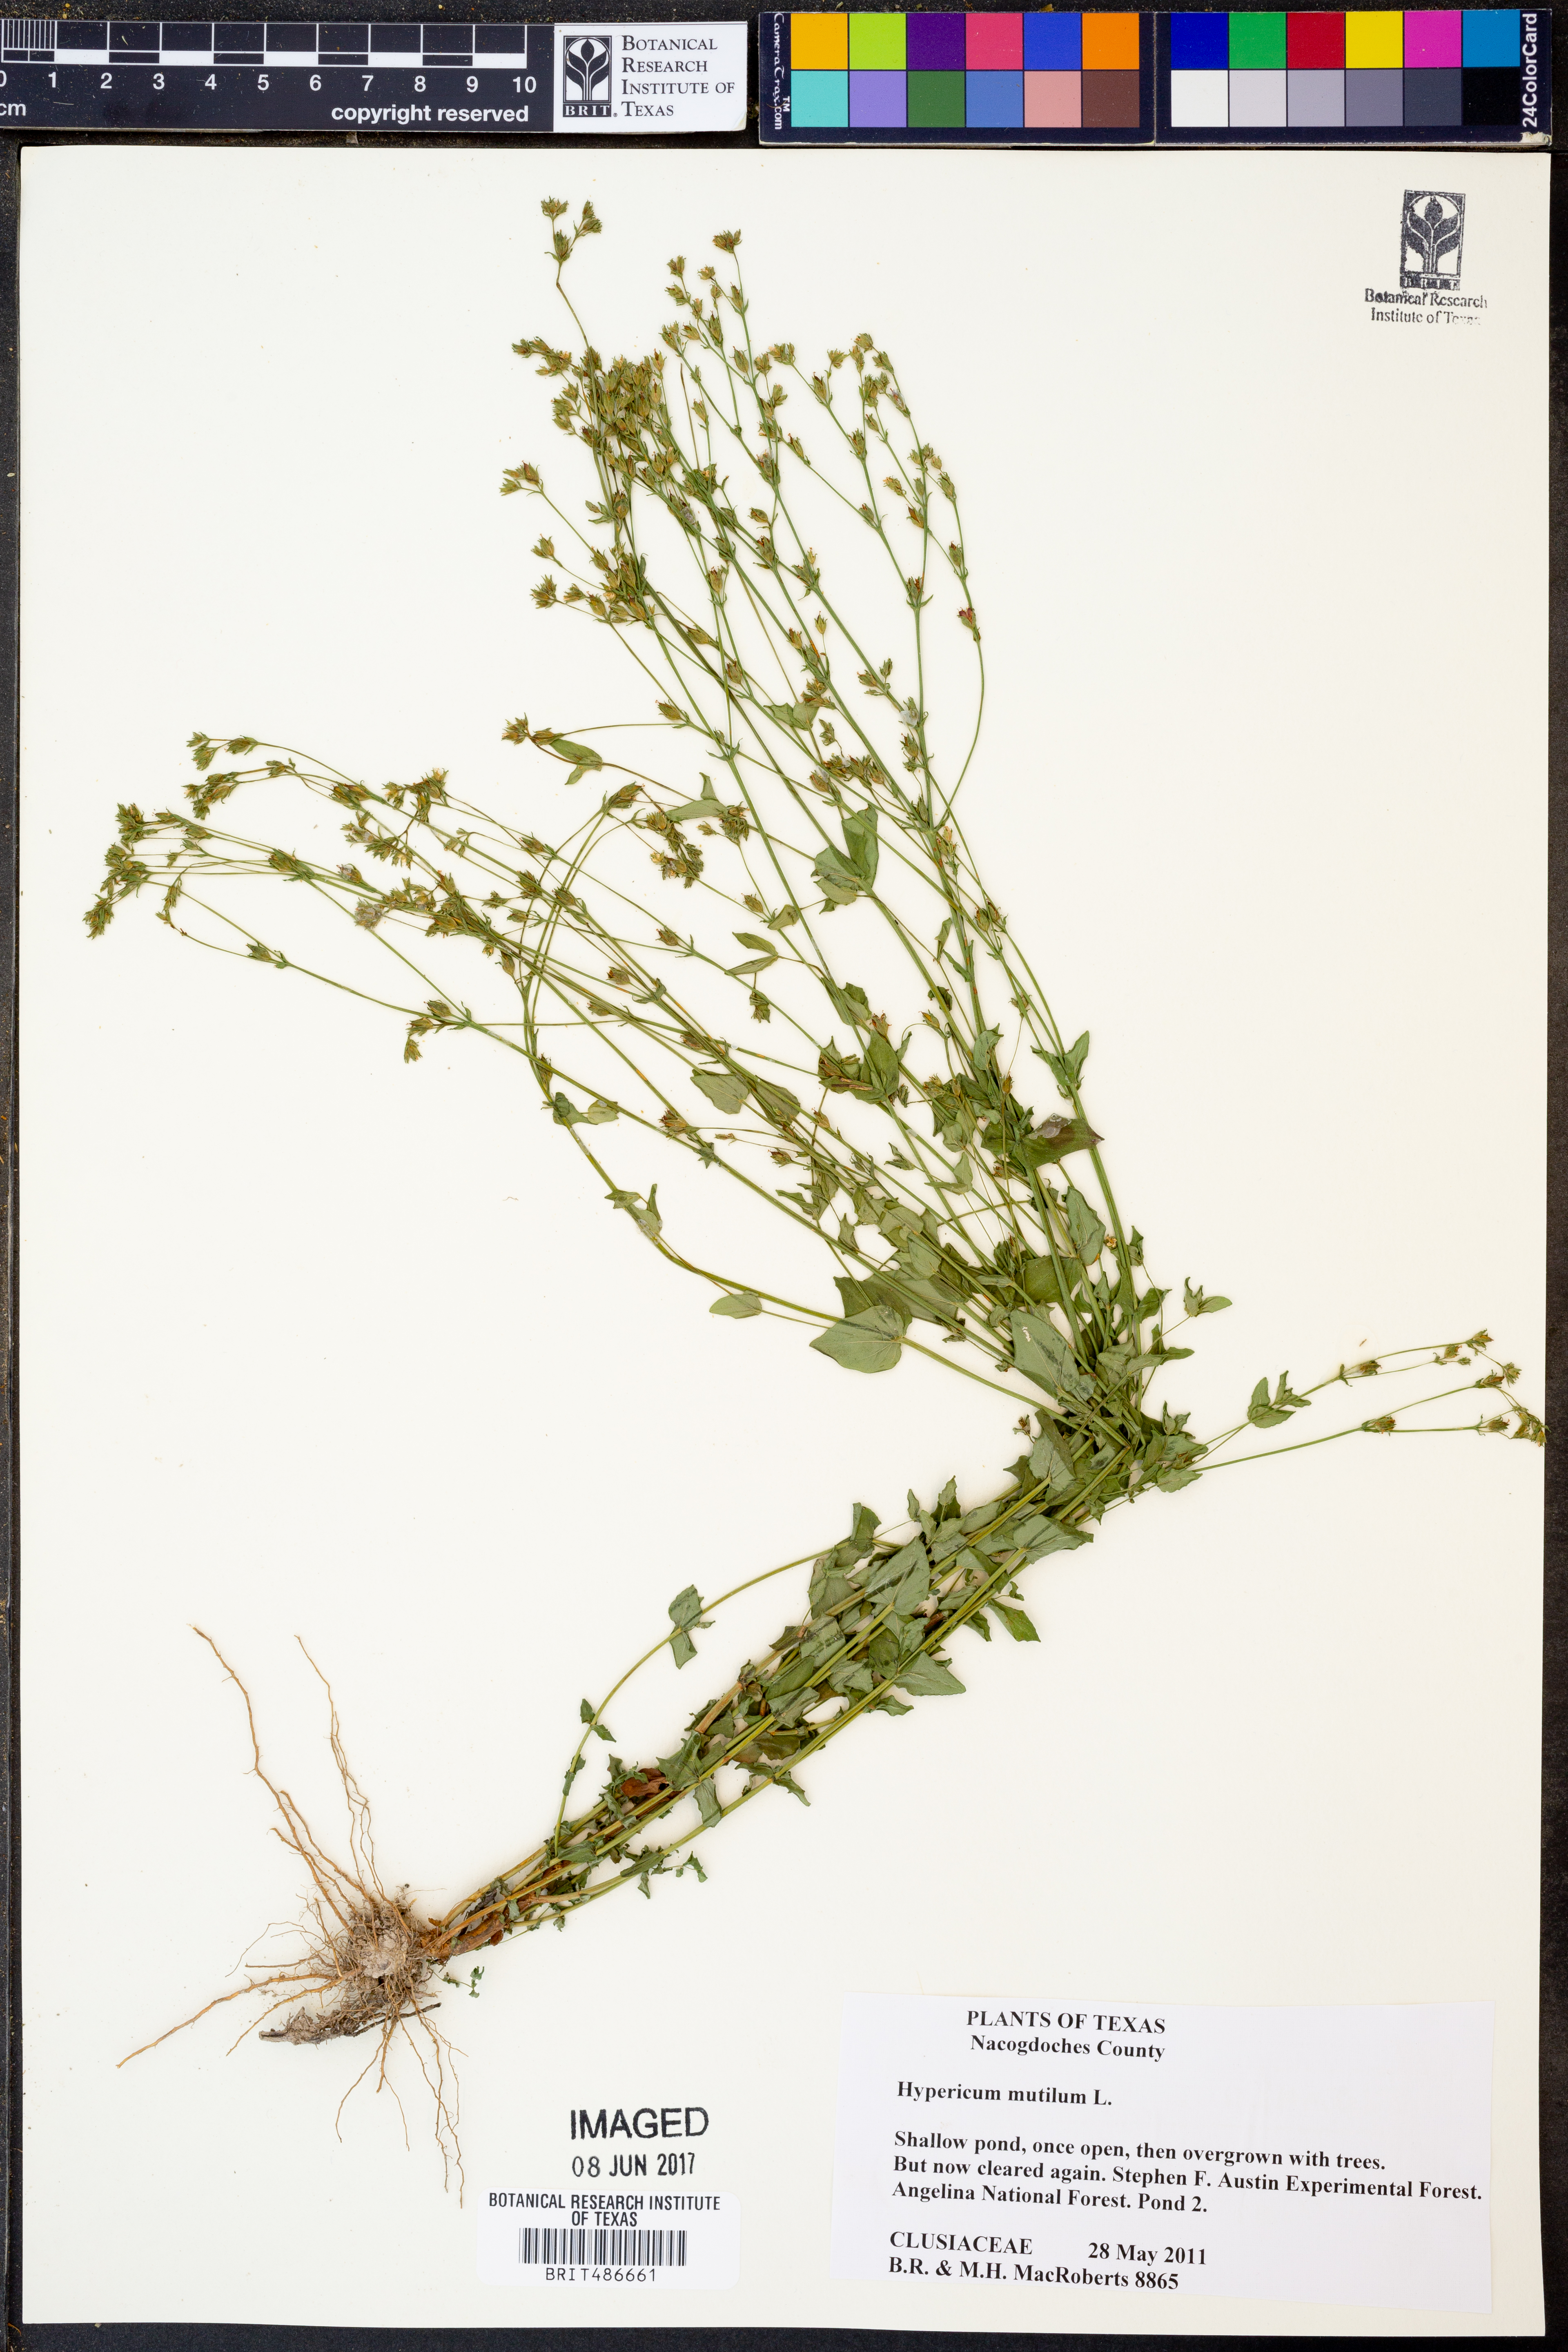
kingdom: Plantae
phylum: Tracheophyta
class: Magnoliopsida
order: Malpighiales
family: Hypericaceae
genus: Hypericum
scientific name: Hypericum mutilum
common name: Dwarf st. john's-wort
